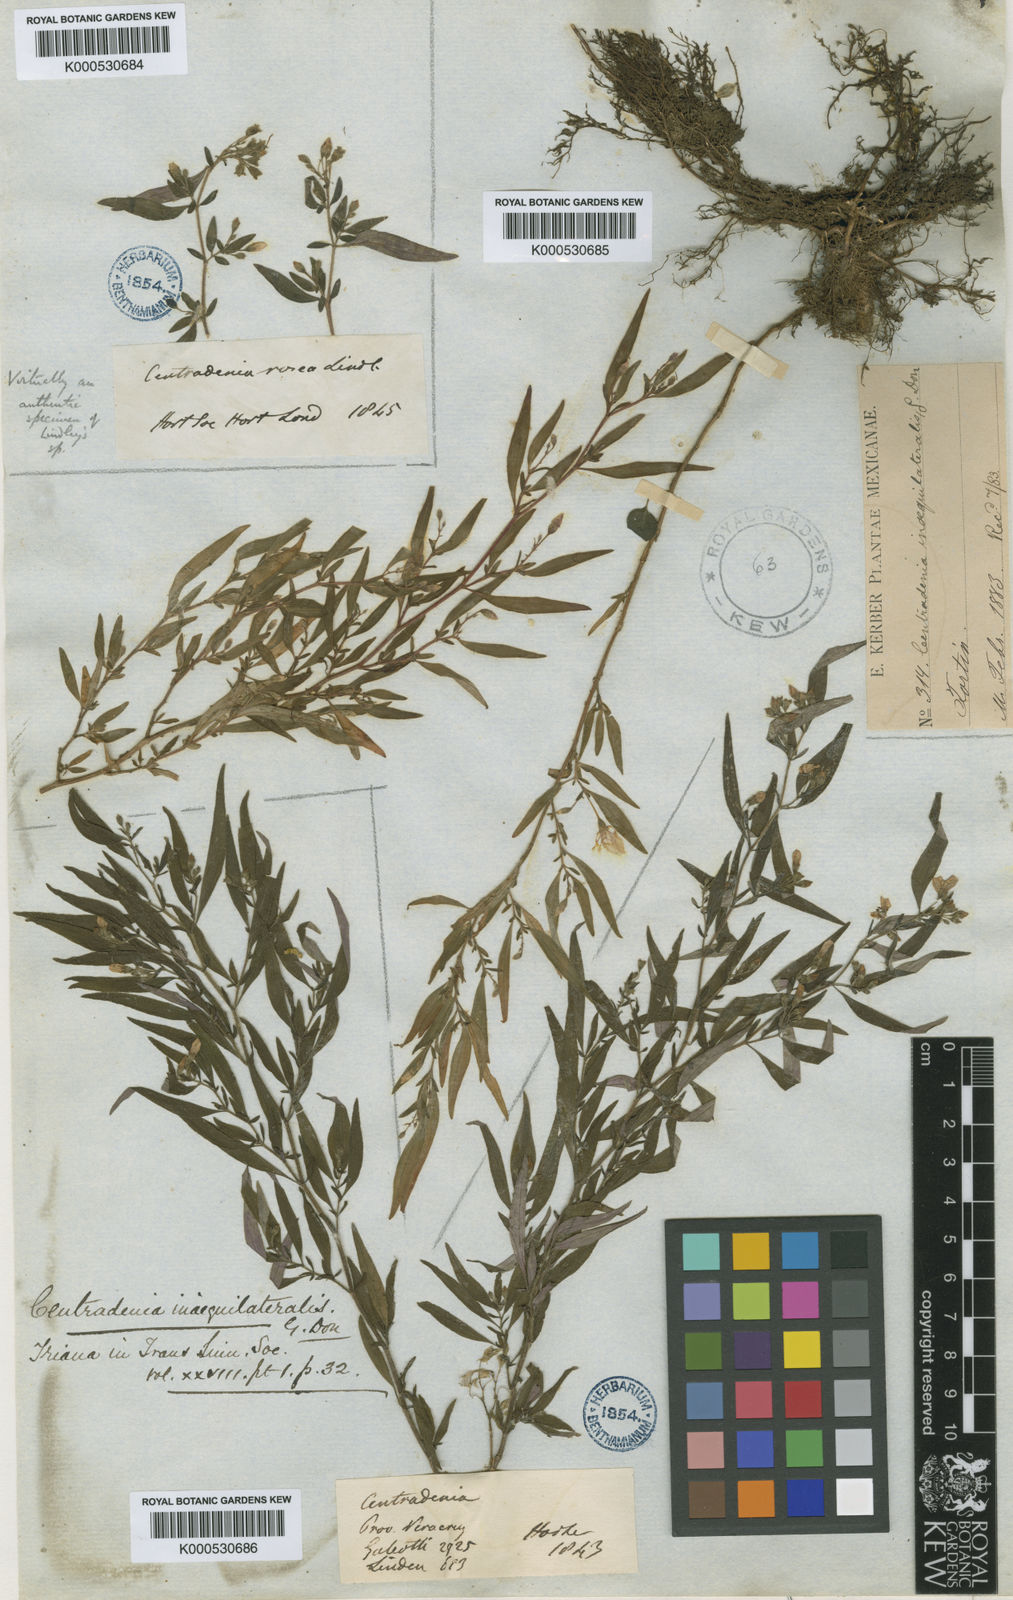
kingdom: Plantae
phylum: Tracheophyta
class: Magnoliopsida
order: Myrtales
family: Melastomataceae
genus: Centradenia
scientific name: Centradenia inaequilateralis
